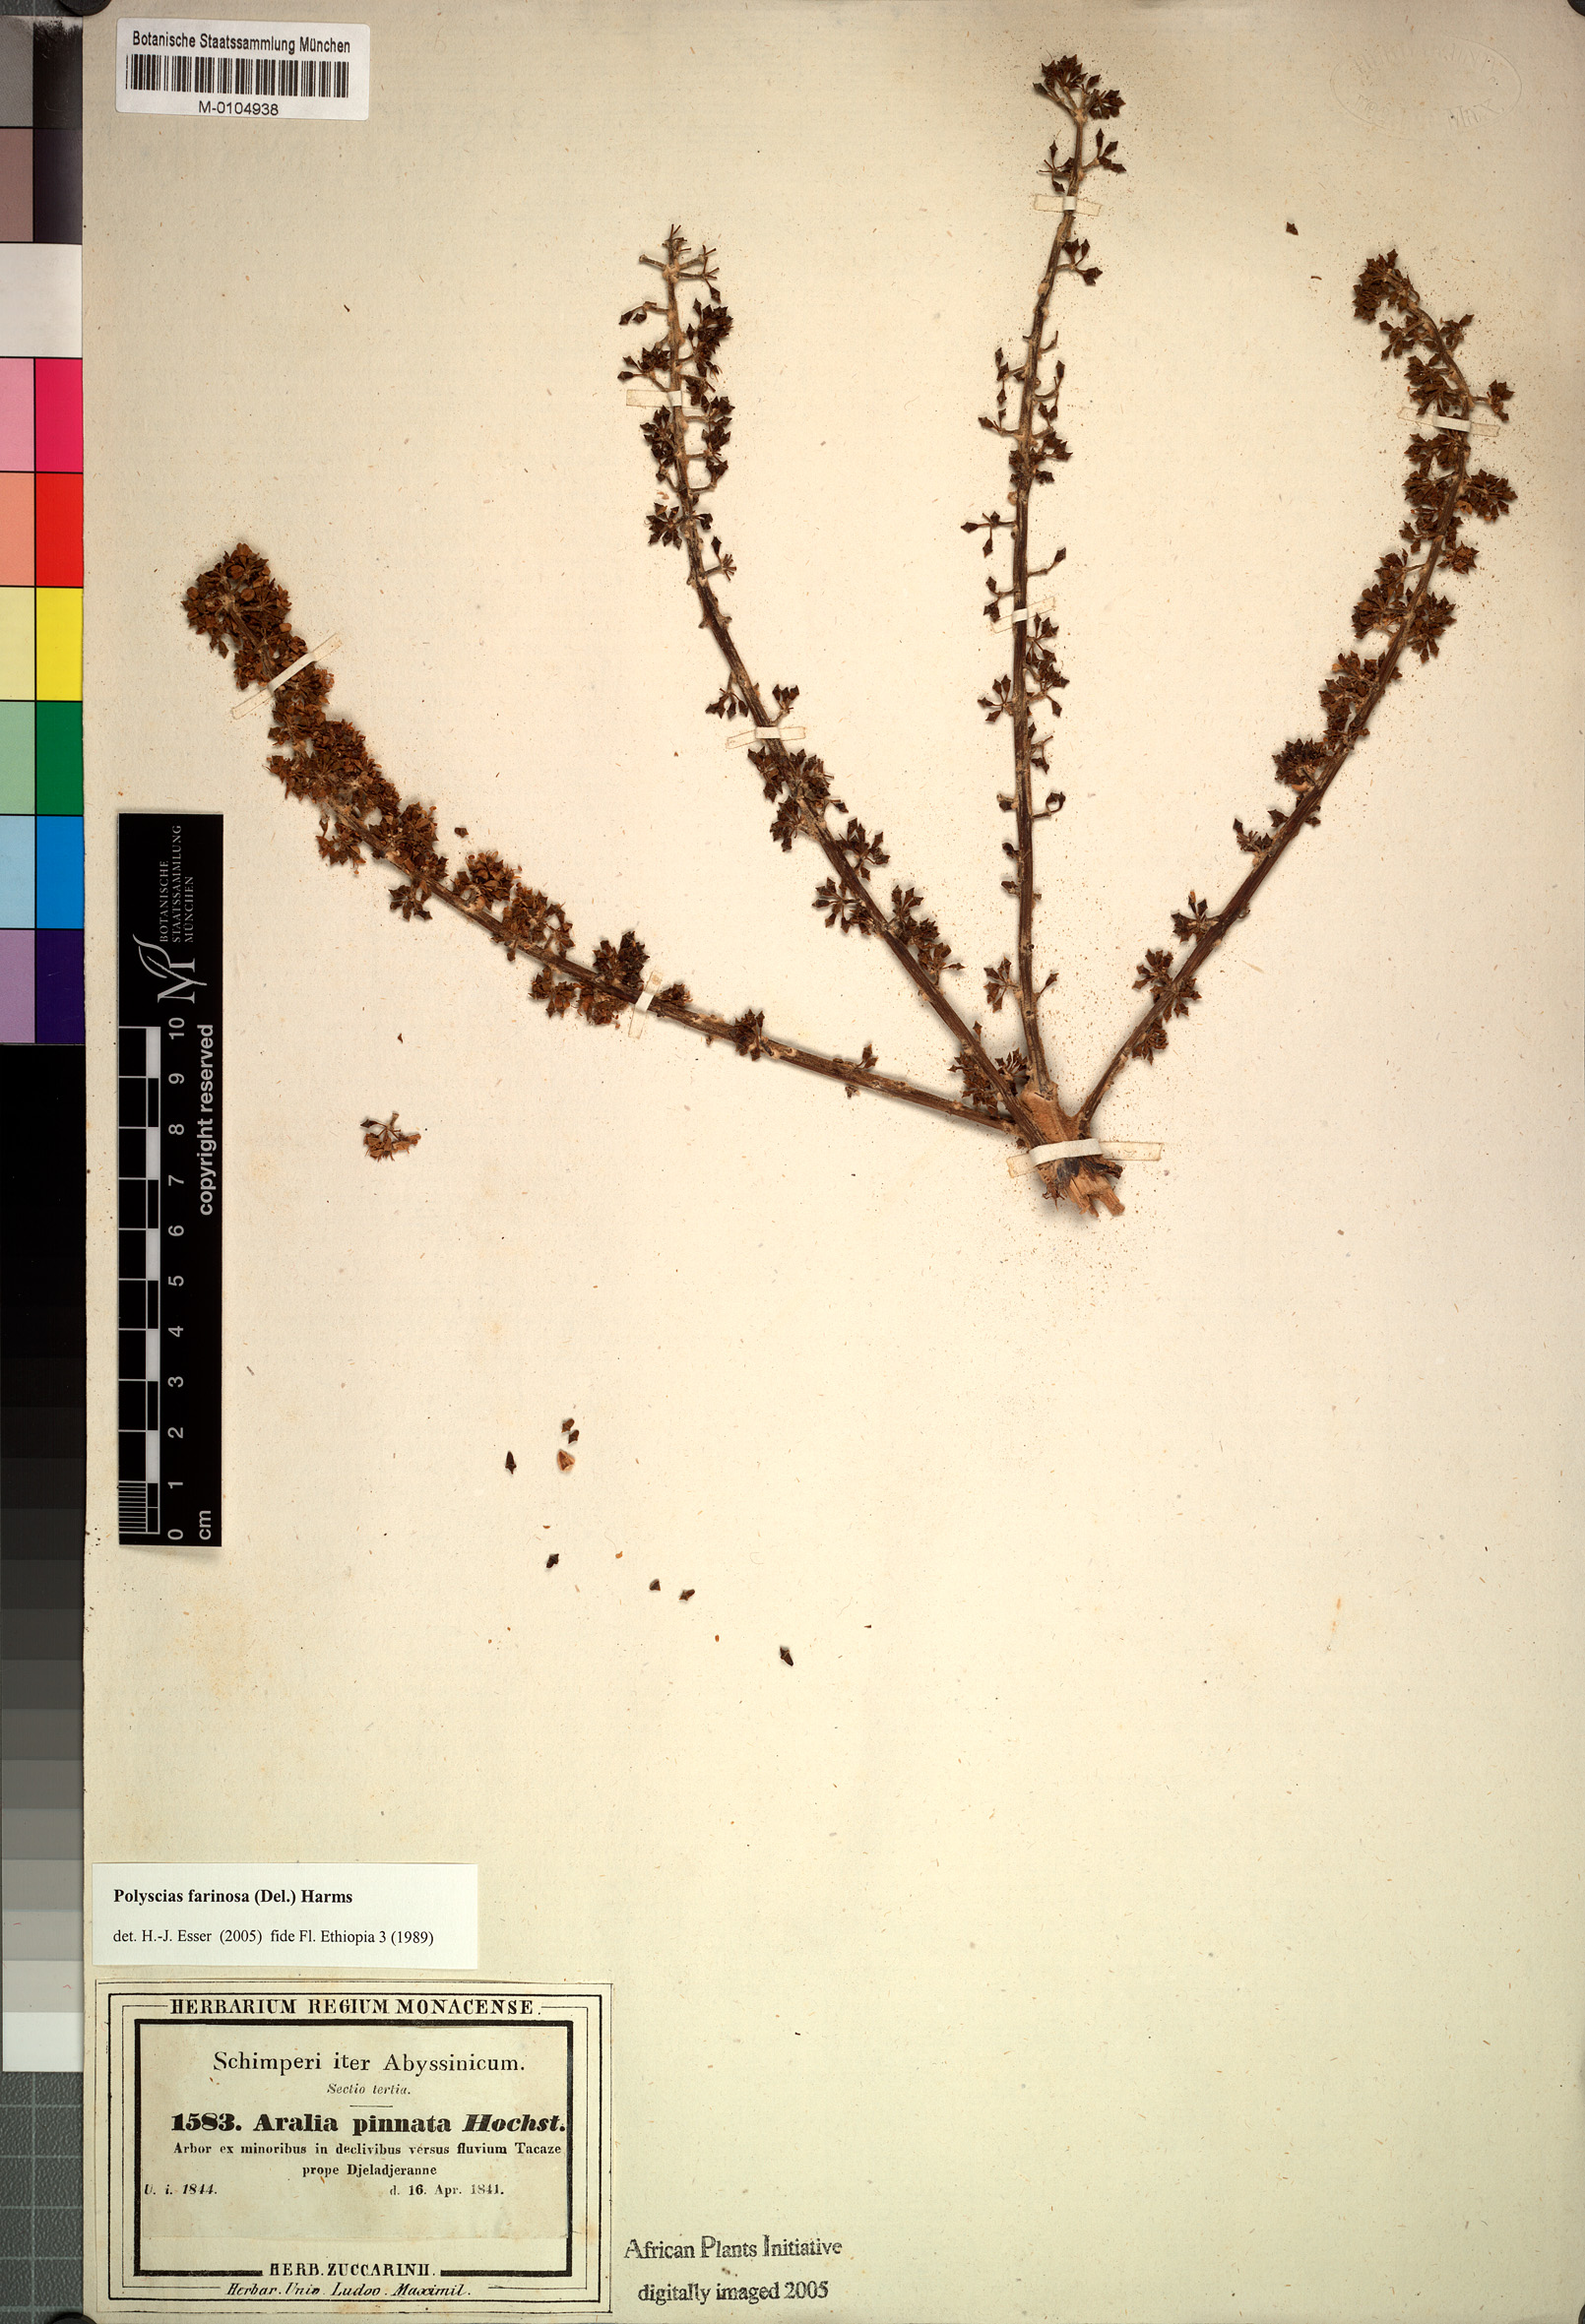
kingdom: Plantae
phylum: Tracheophyta
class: Magnoliopsida
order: Apiales
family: Araliaceae
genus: Polyscias
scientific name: Polyscias farinosa
